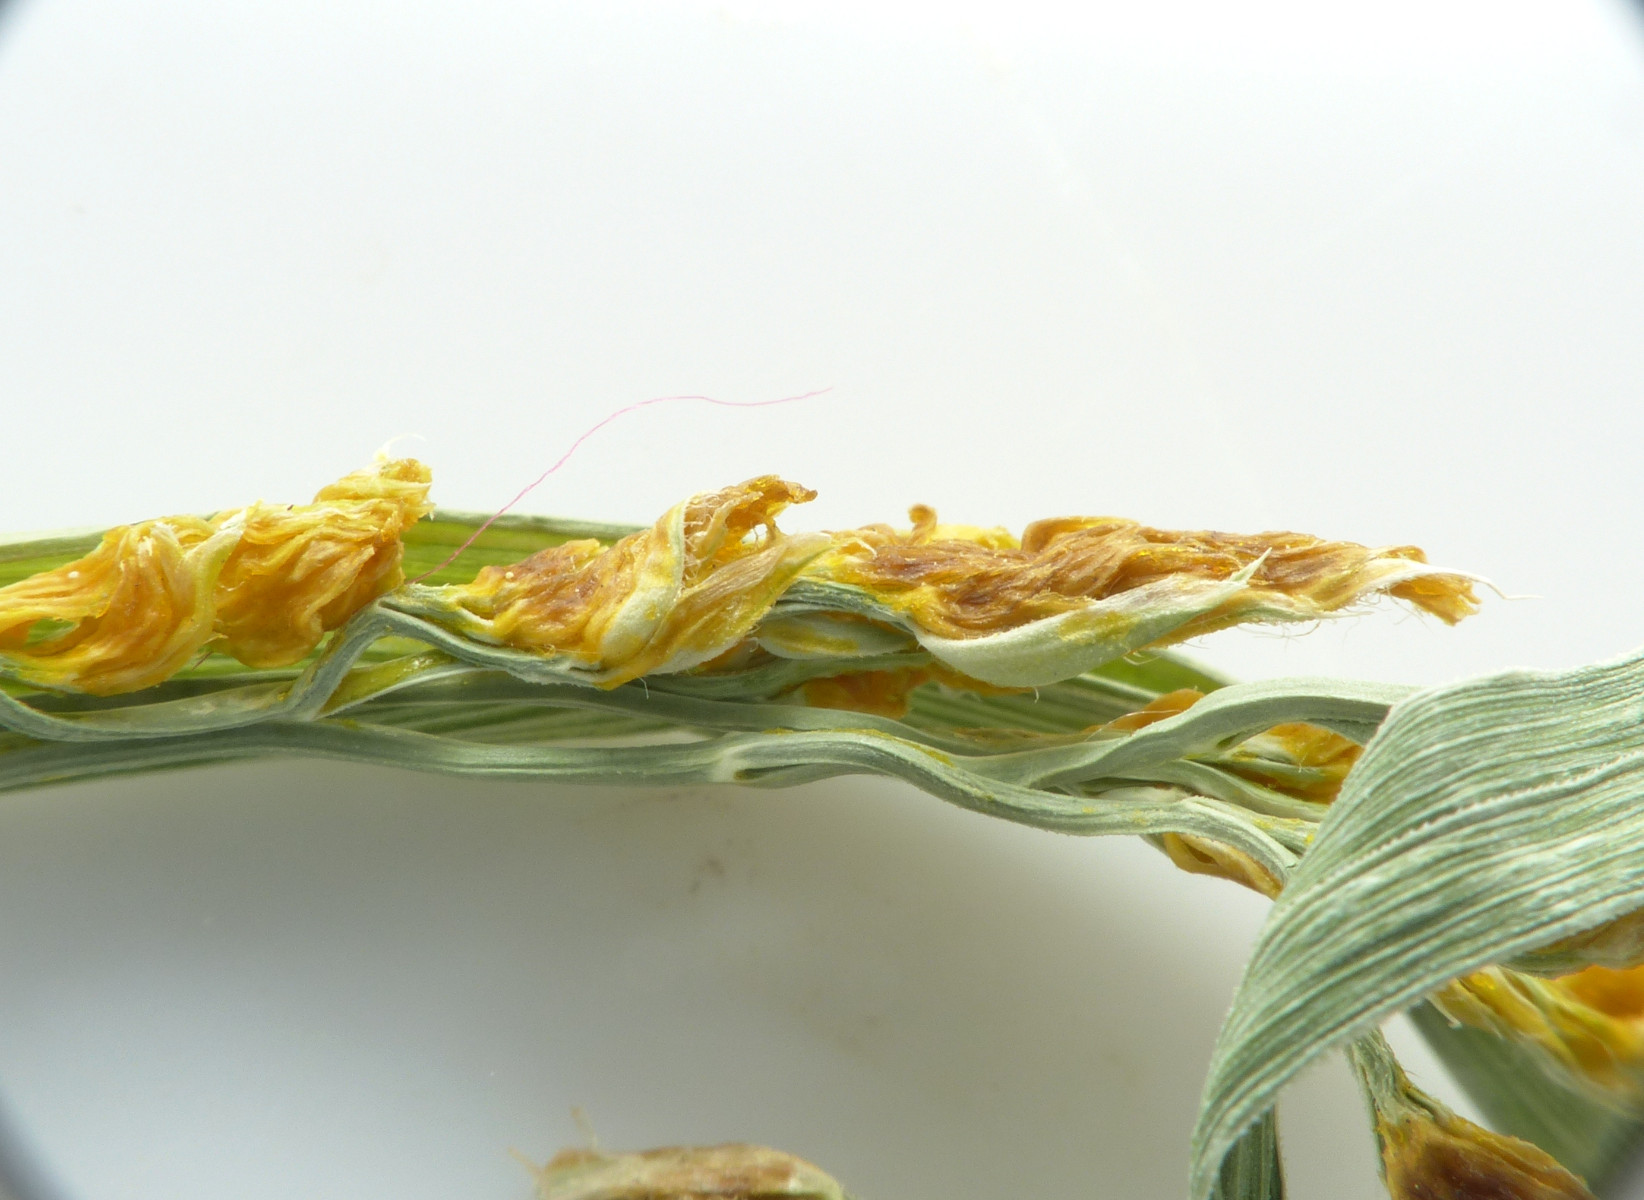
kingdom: Fungi
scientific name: Fungi
